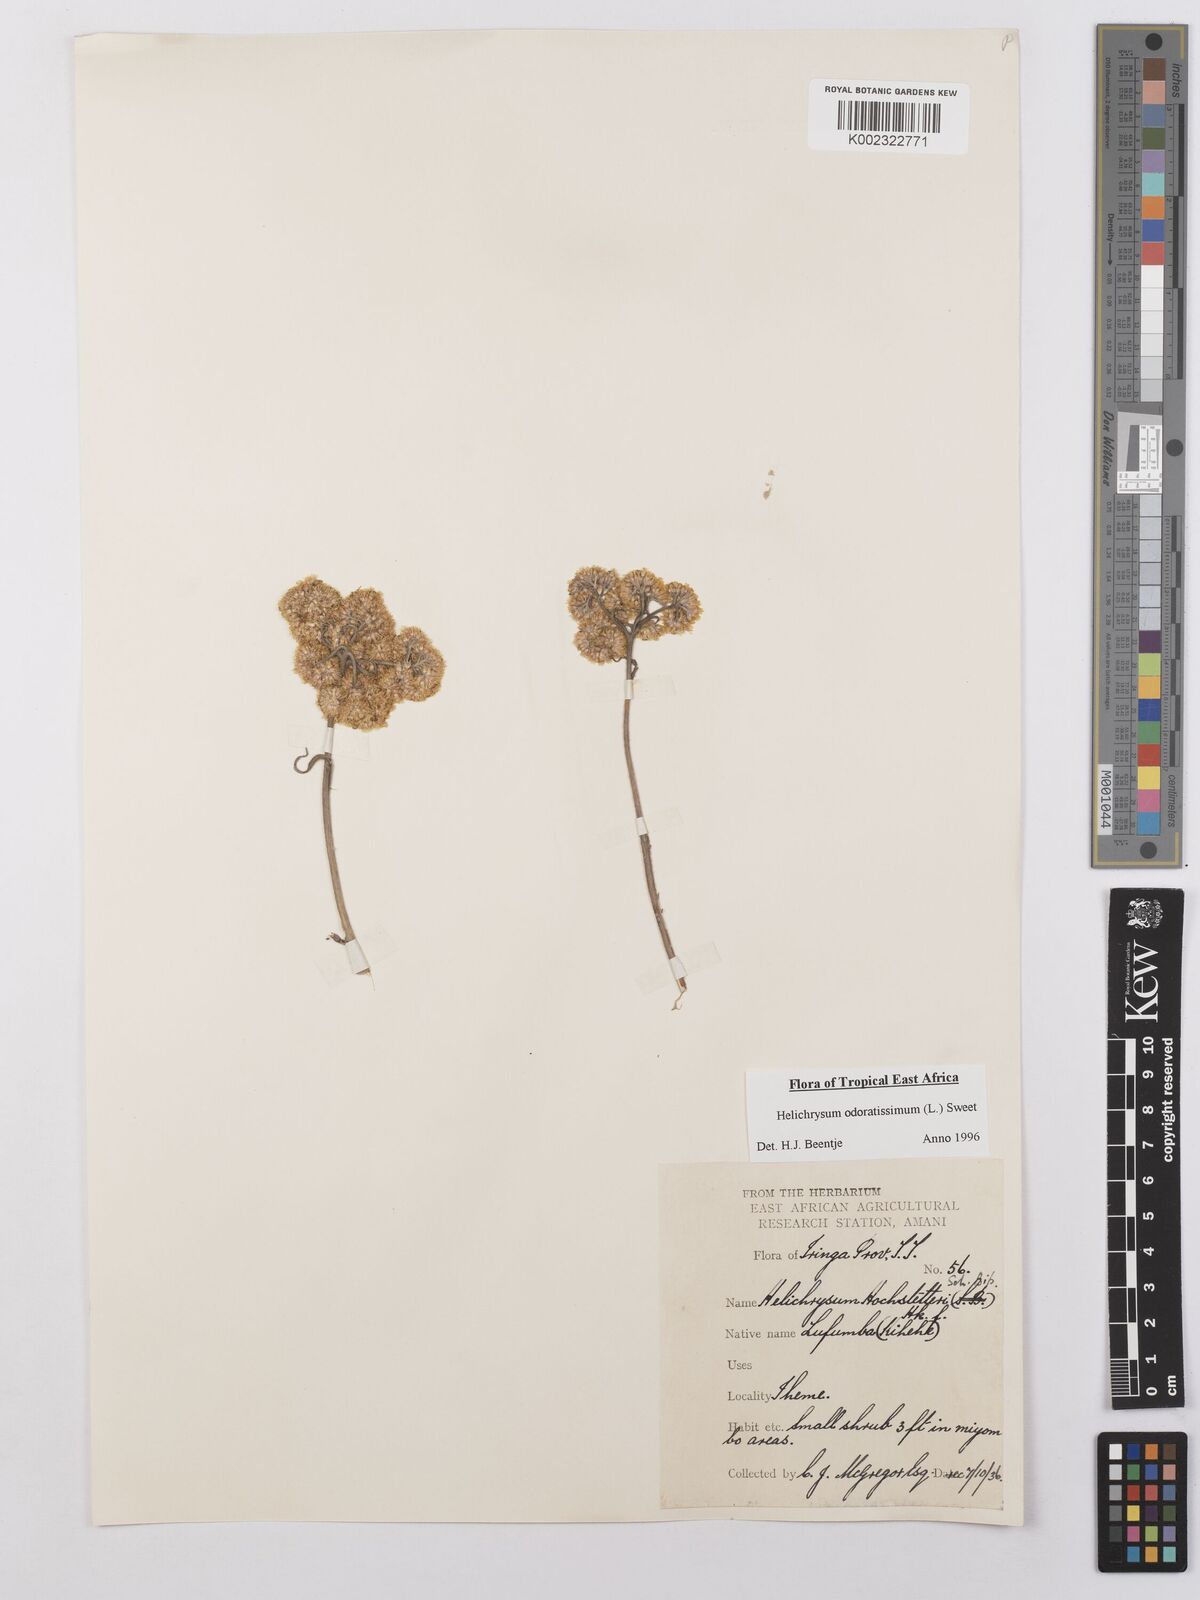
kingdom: Plantae
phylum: Tracheophyta
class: Magnoliopsida
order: Asterales
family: Asteraceae
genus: Helichrysum
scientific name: Helichrysum odoratissimum
